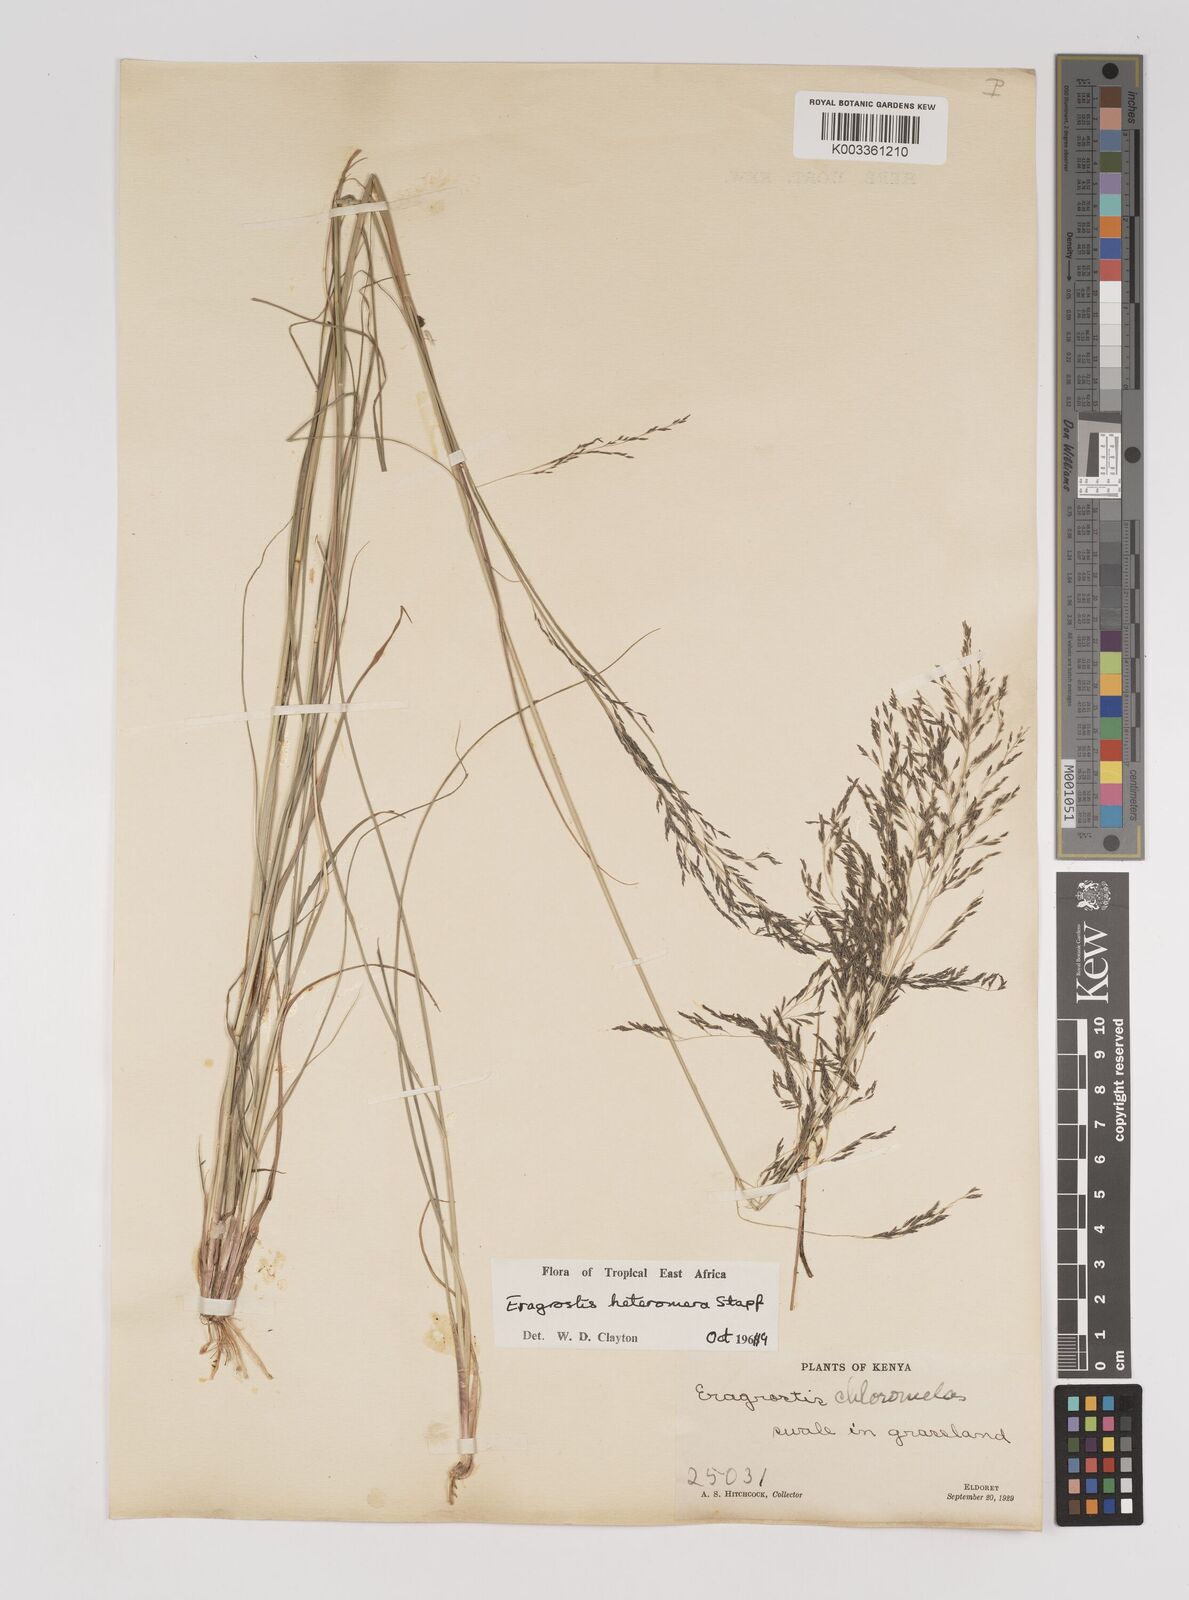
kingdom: Plantae
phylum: Tracheophyta
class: Liliopsida
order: Poales
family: Poaceae
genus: Eragrostis
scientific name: Eragrostis heteromera
